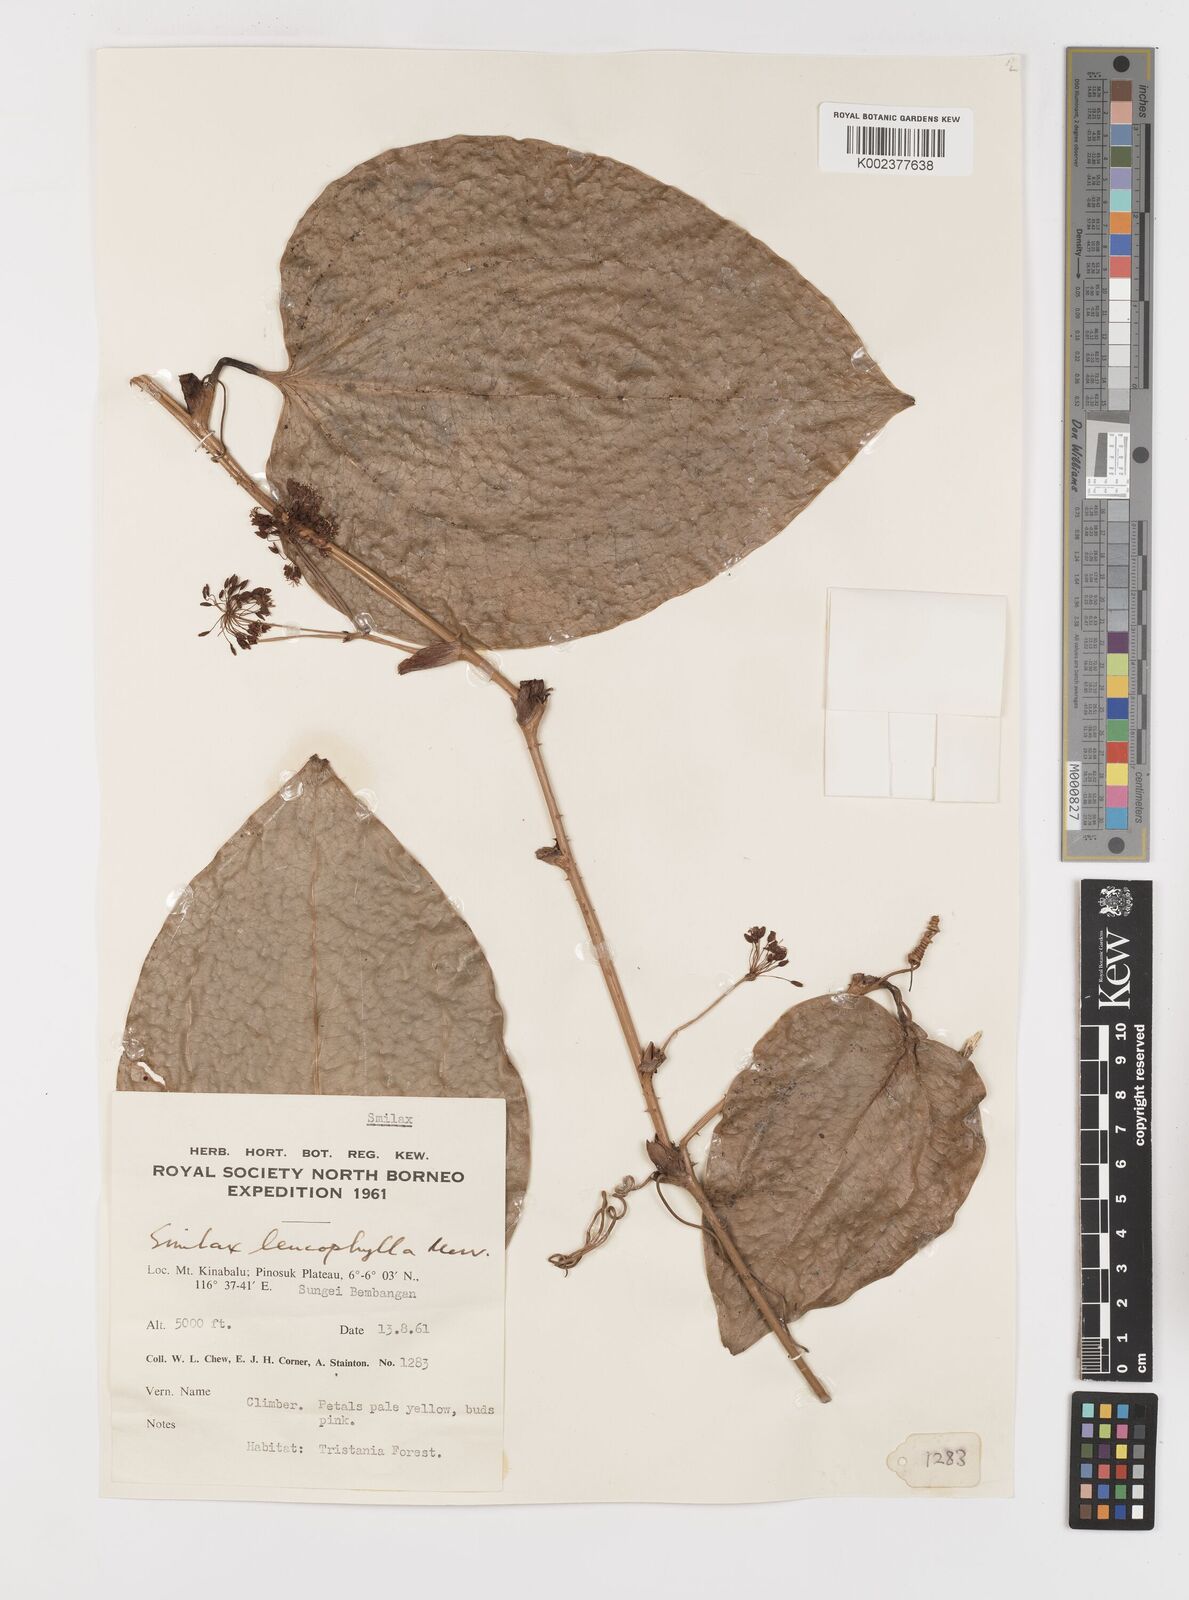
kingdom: Plantae
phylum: Tracheophyta
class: Liliopsida
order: Liliales
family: Smilacaceae
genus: Smilax
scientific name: Smilax leucophylla
